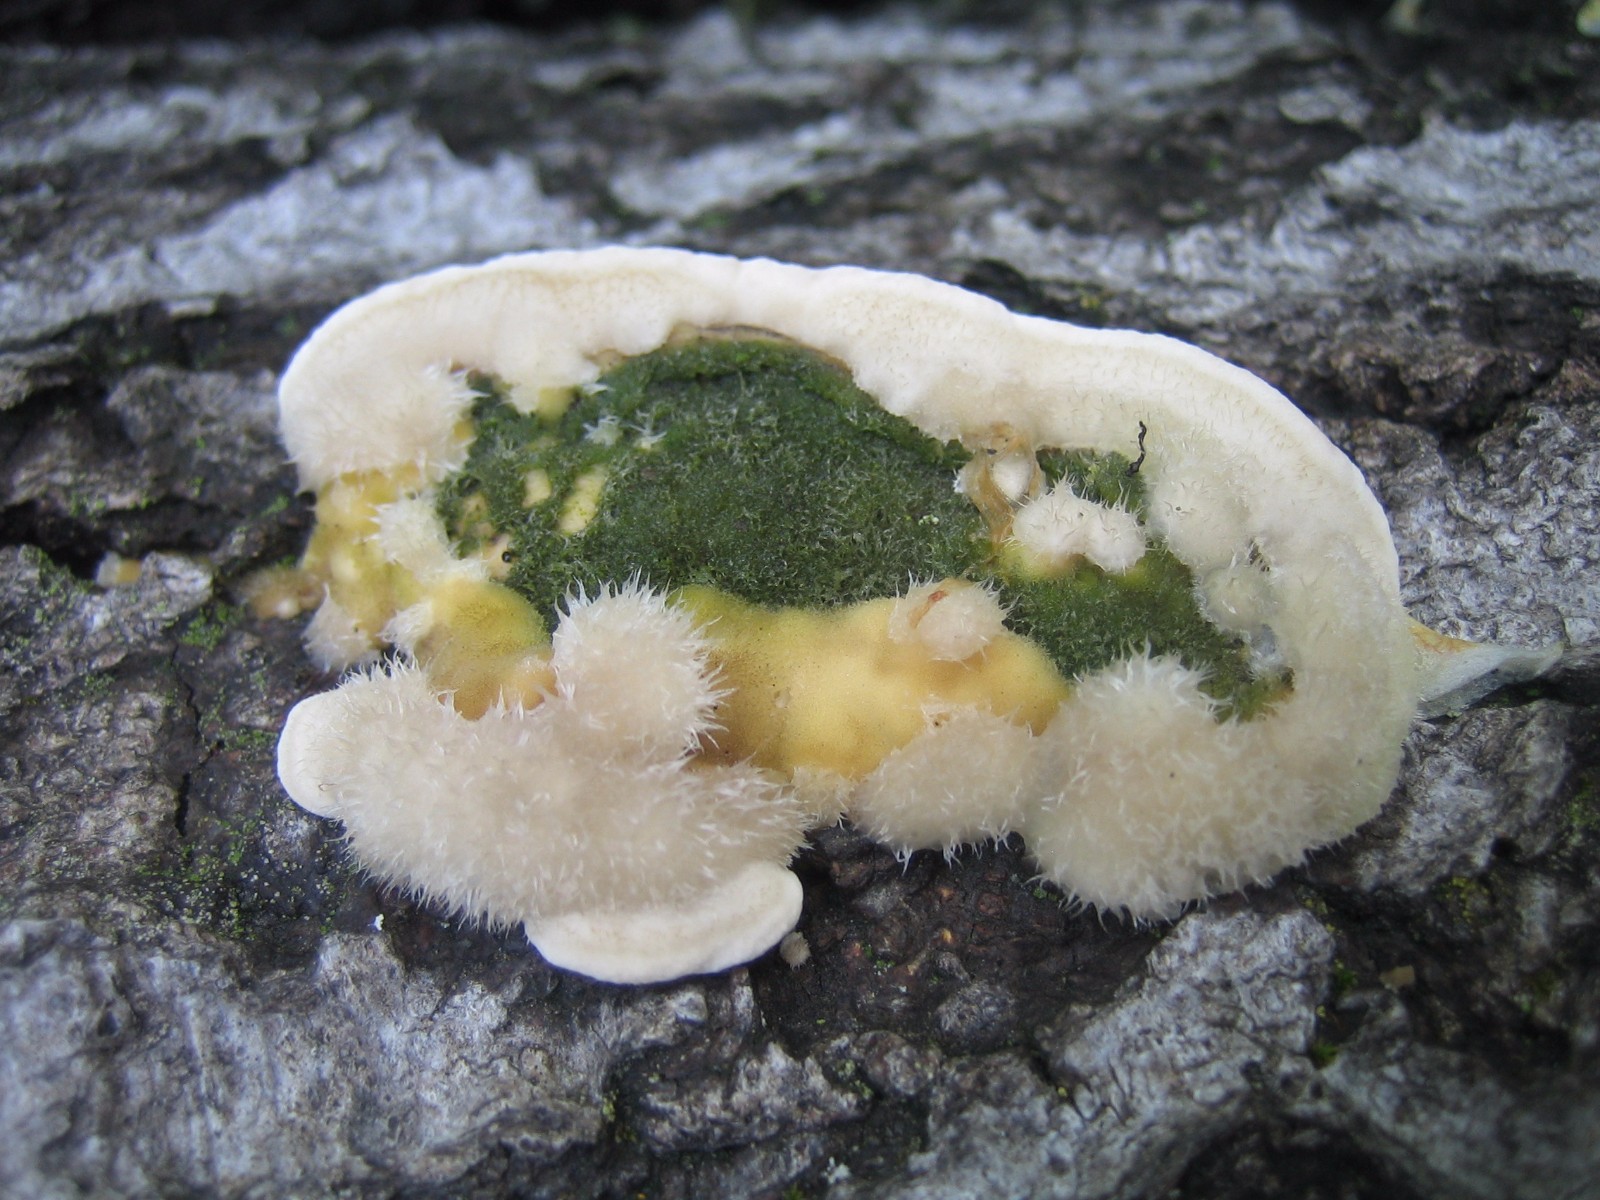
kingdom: Fungi
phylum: Basidiomycota
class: Agaricomycetes
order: Polyporales
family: Polyporaceae
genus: Trametes
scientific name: Trametes hirsuta
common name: håret læderporesvamp
